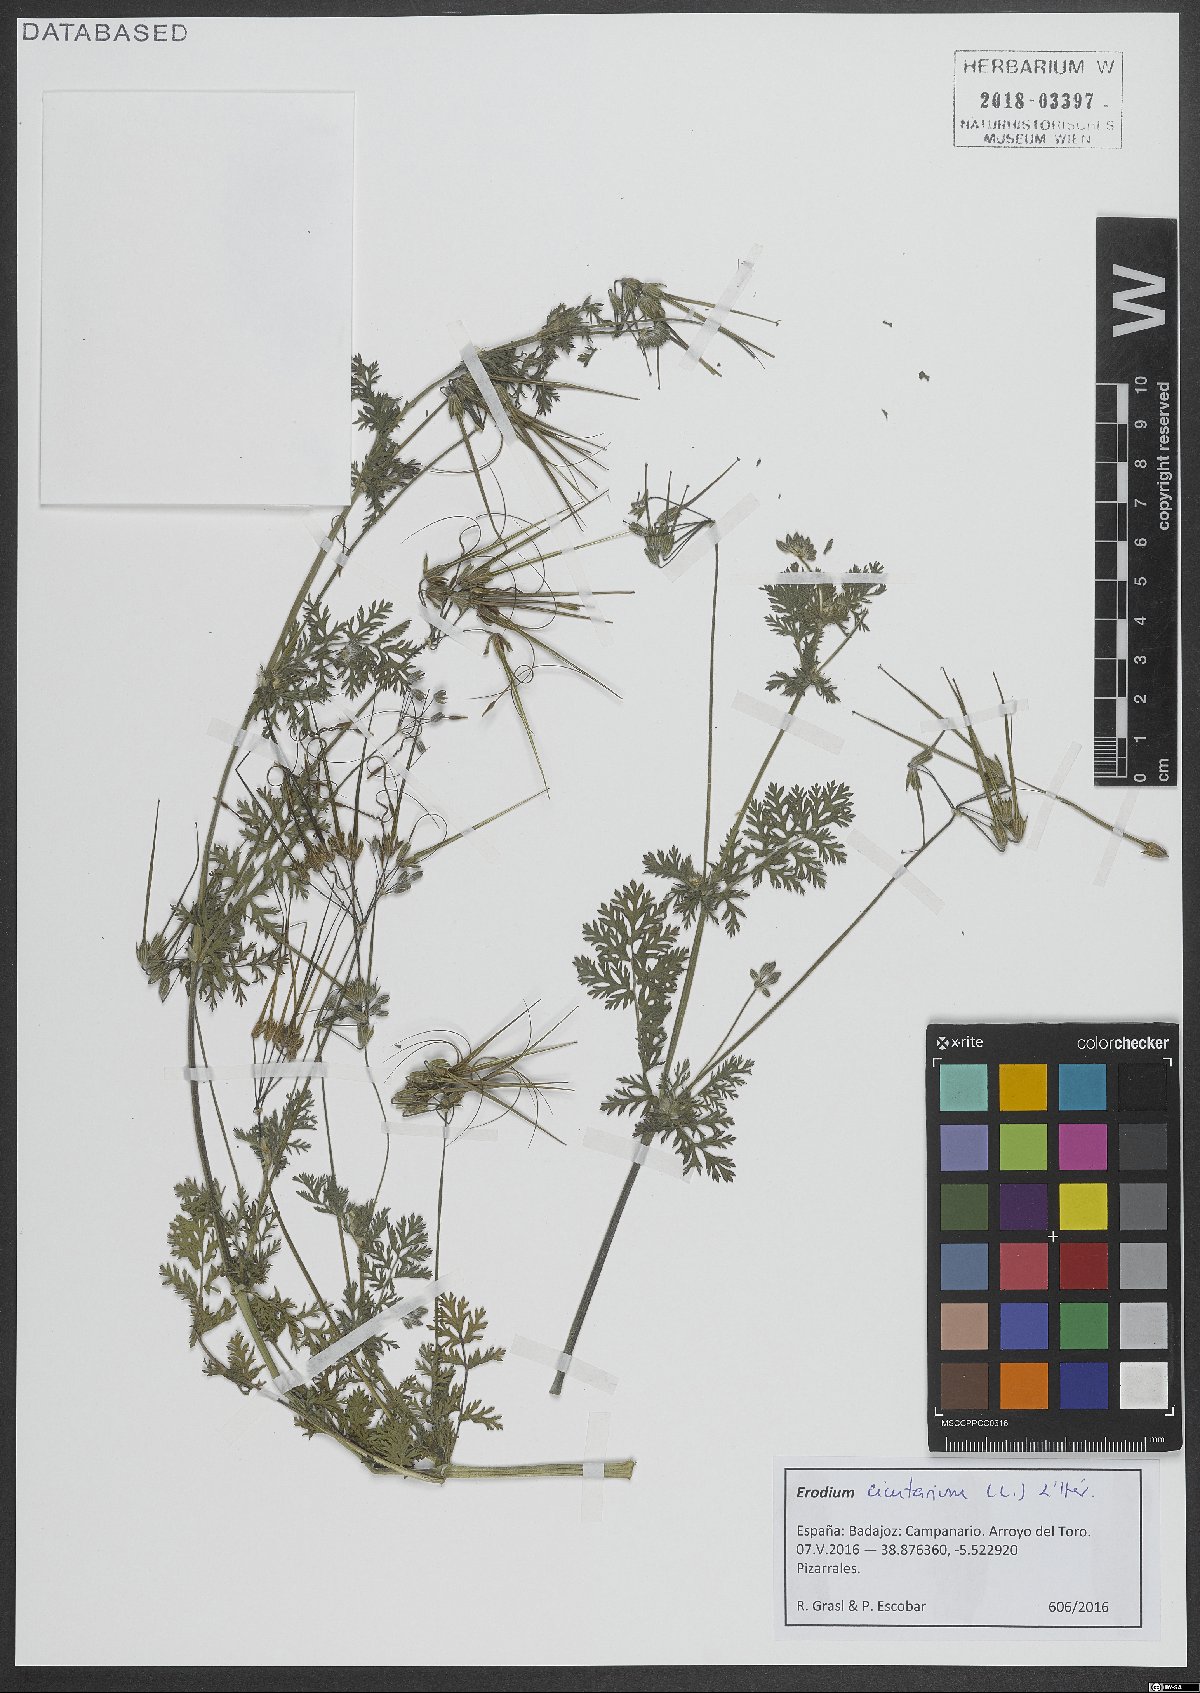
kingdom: Plantae
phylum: Tracheophyta
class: Magnoliopsida
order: Geraniales
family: Geraniaceae
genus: Erodium
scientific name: Erodium cicutarium
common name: Common stork's-bill
